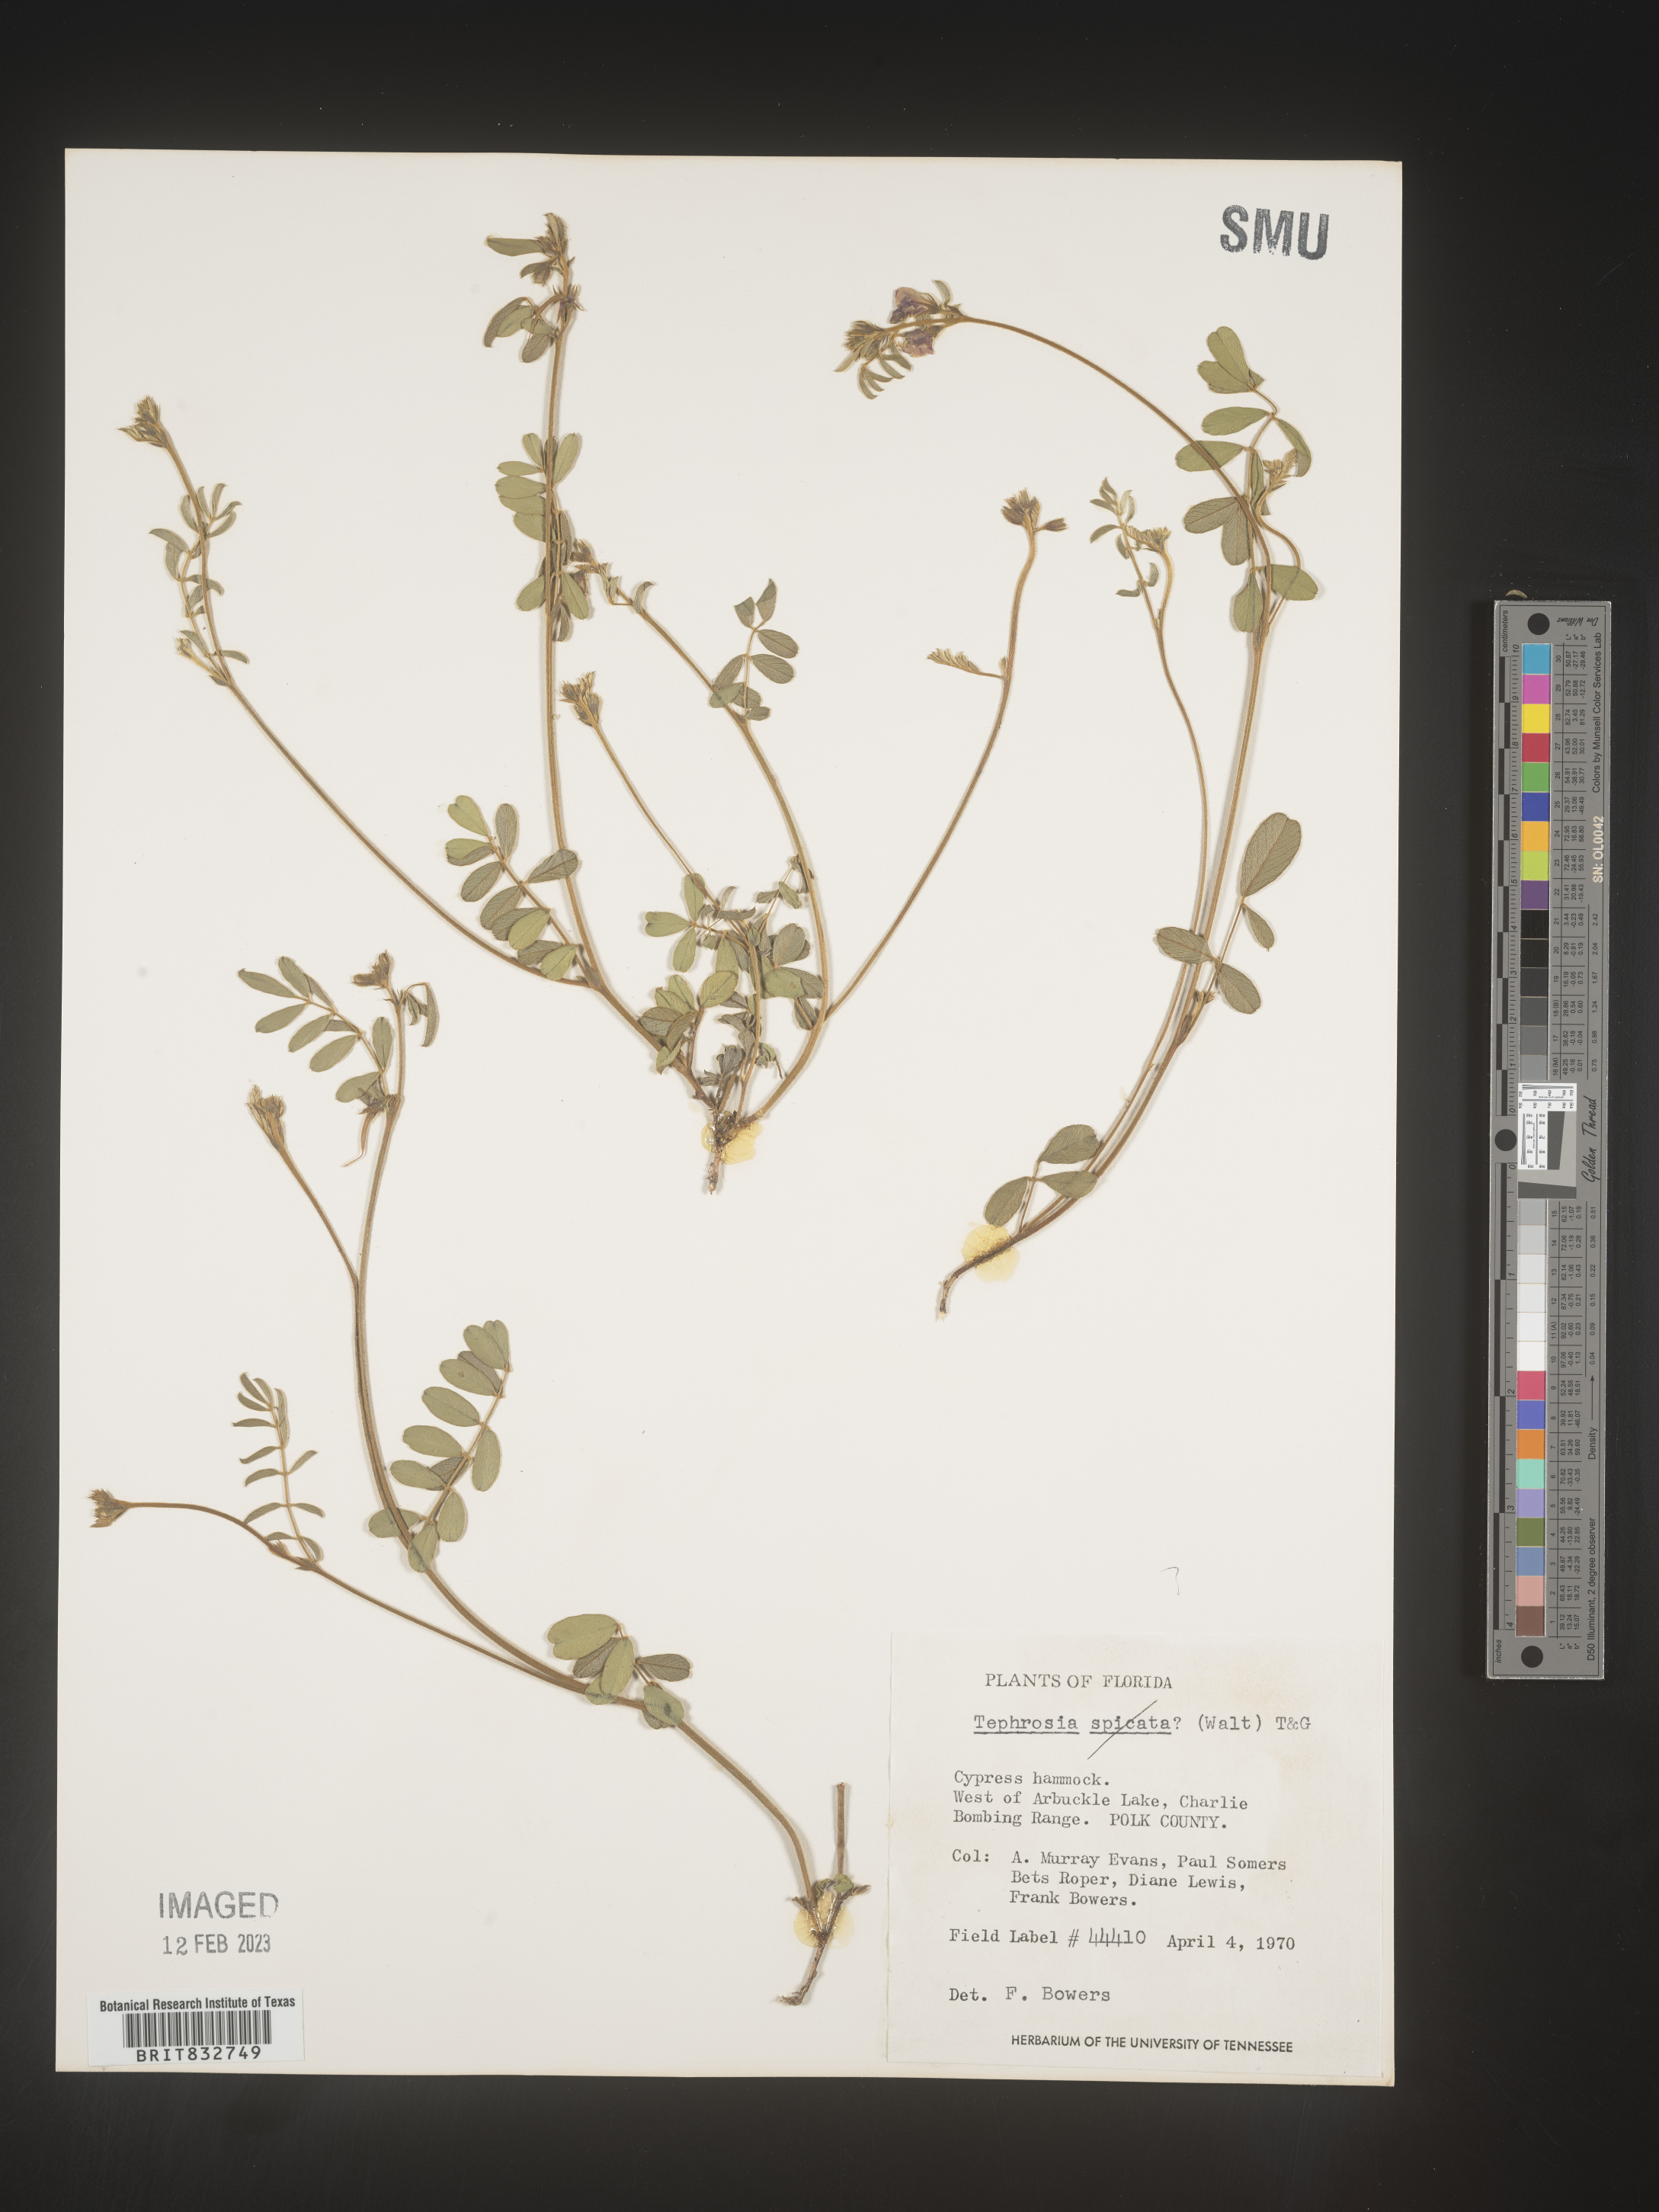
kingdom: Plantae
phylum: Tracheophyta
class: Magnoliopsida
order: Fabales
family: Fabaceae
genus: Tephrosia
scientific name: Tephrosia
